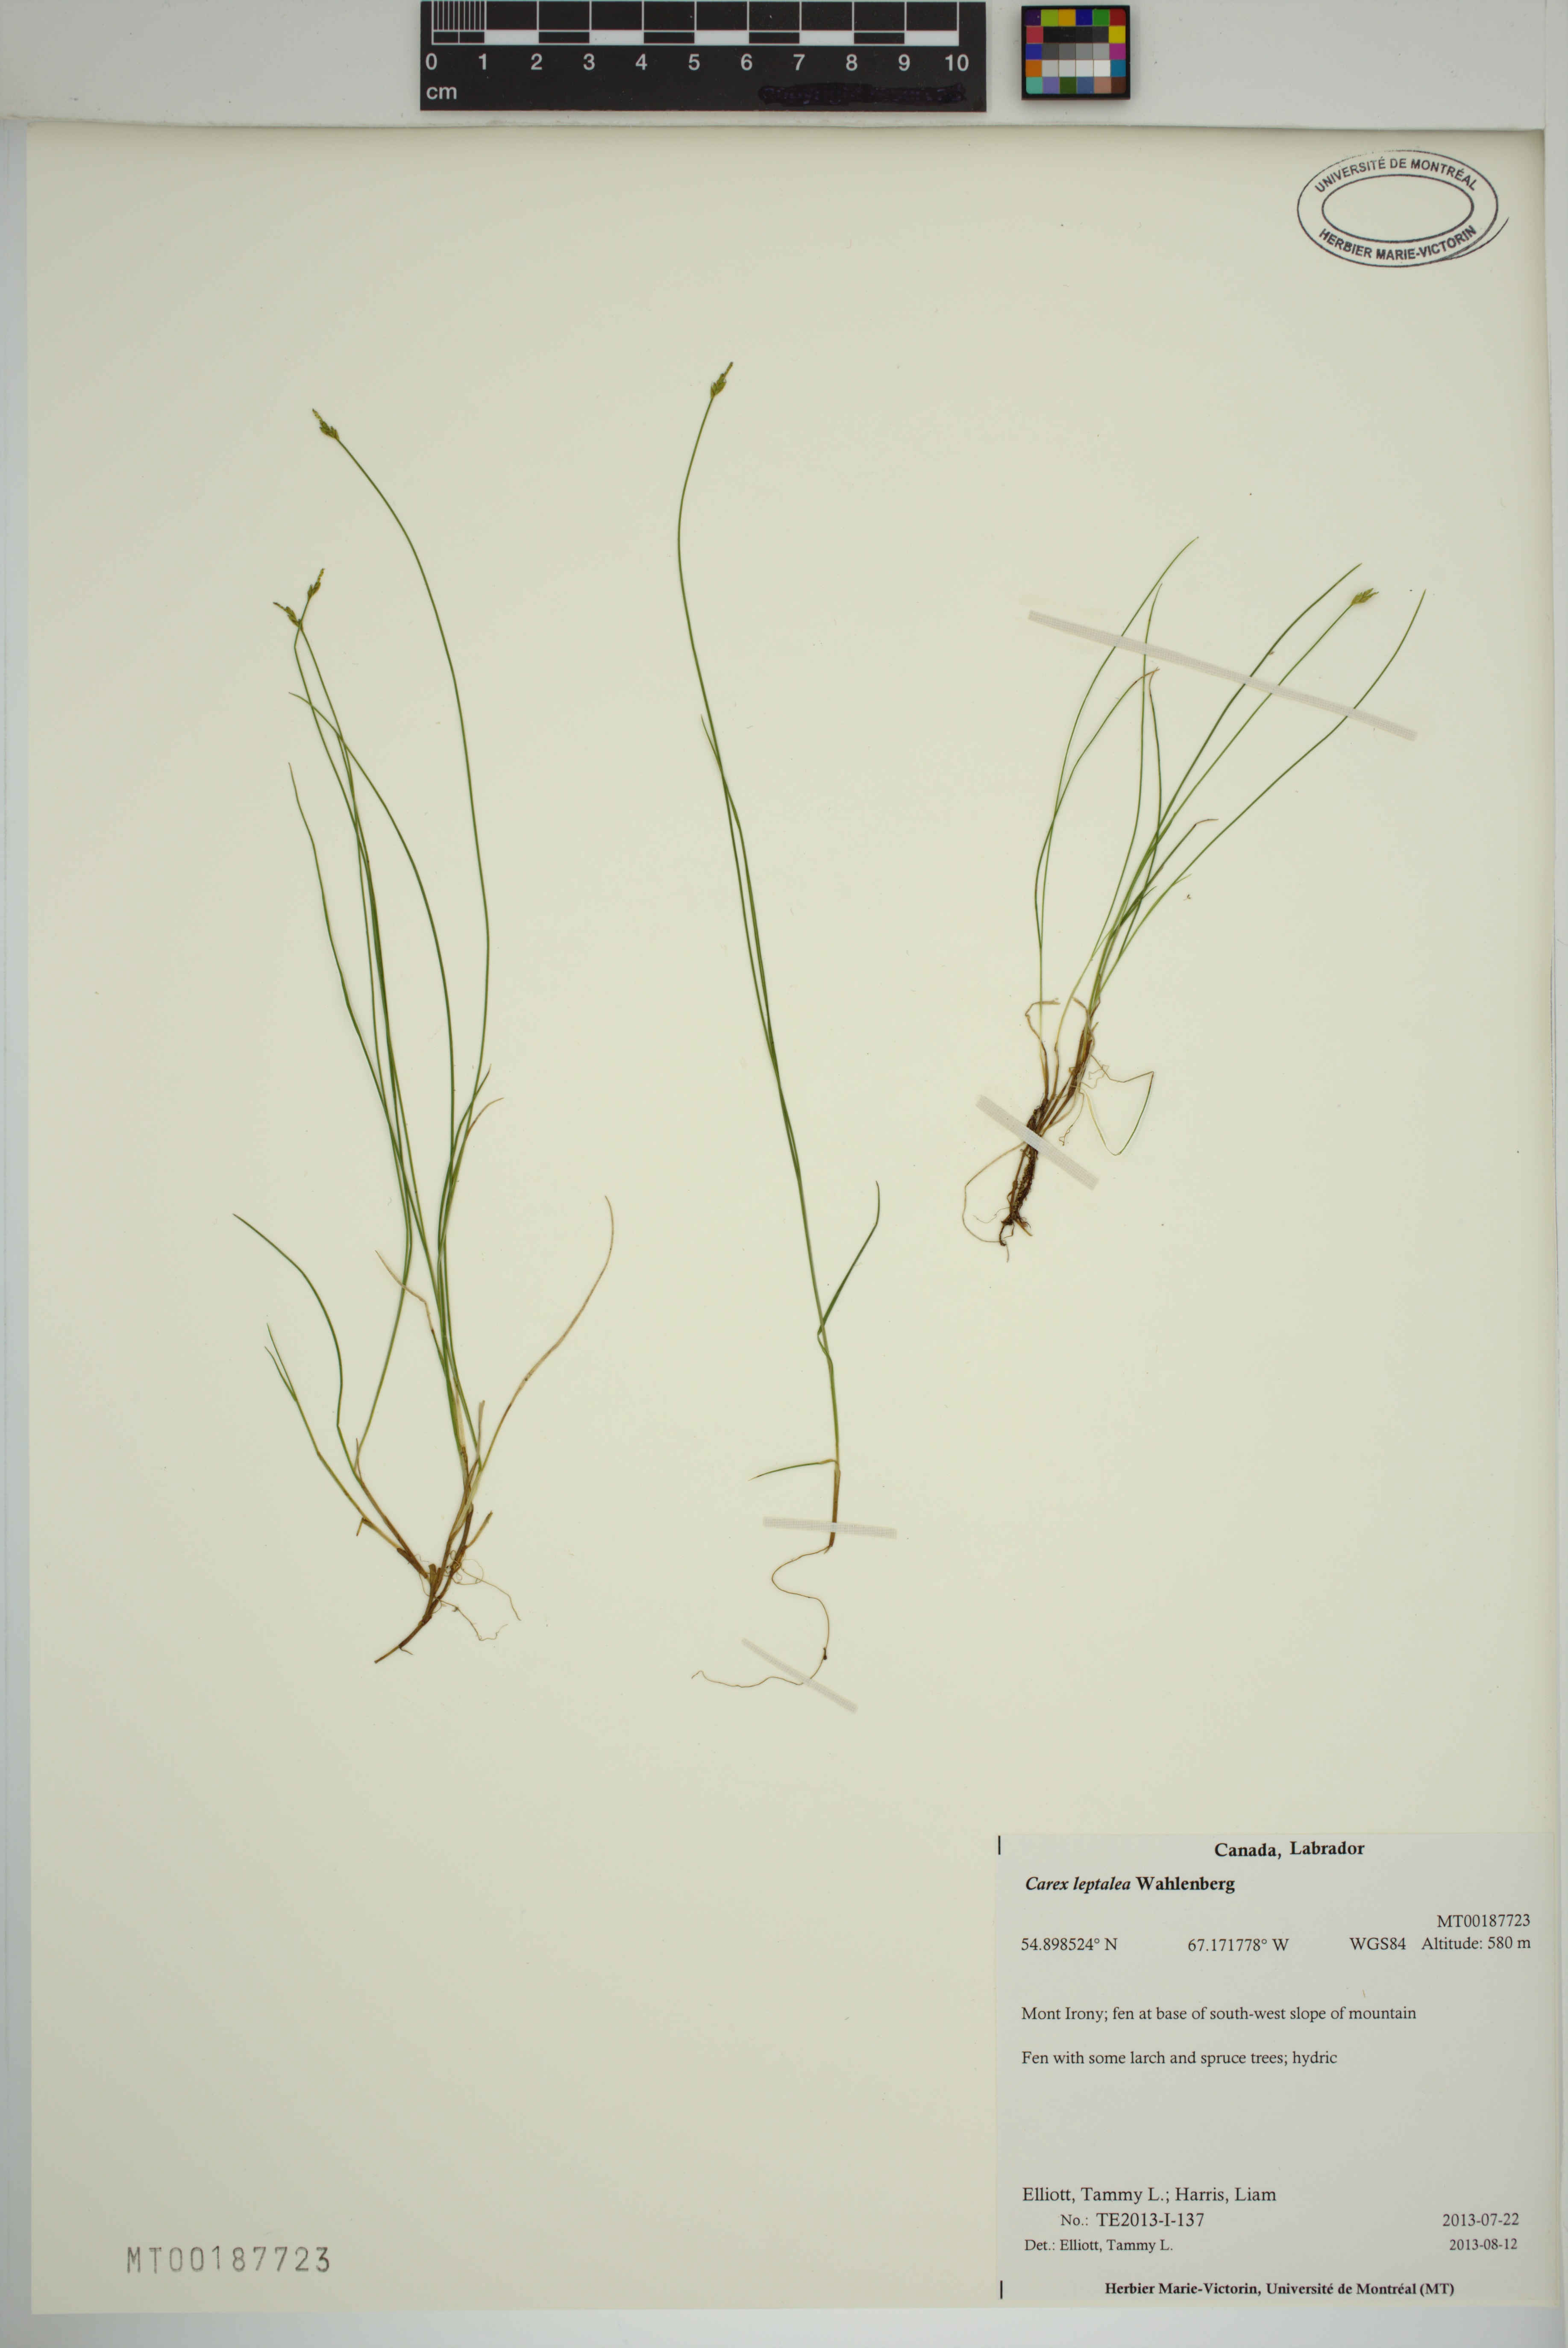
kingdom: Plantae
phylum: Tracheophyta
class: Liliopsida
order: Poales
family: Cyperaceae
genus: Carex
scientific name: Carex leptalea
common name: Bristly-stalked sedge
